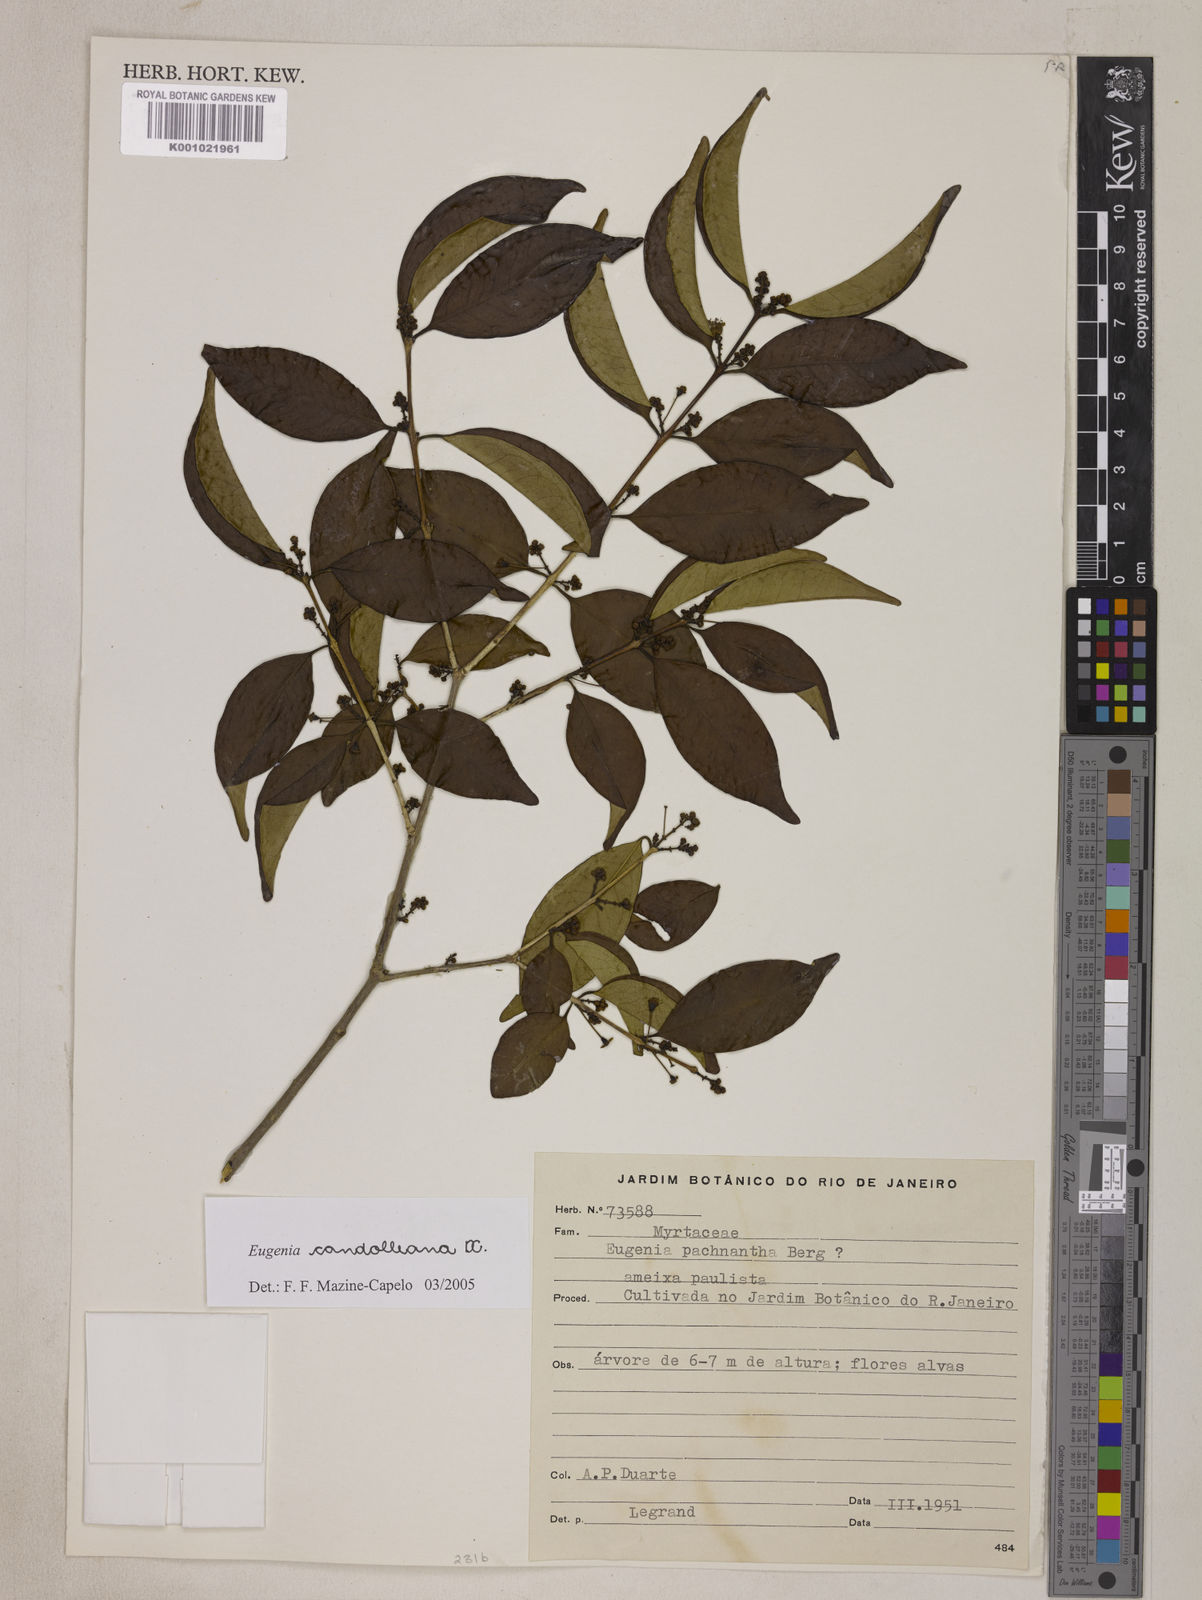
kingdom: Plantae
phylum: Tracheophyta
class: Magnoliopsida
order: Myrtales
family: Myrtaceae
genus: Eugenia
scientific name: Eugenia candolleana
